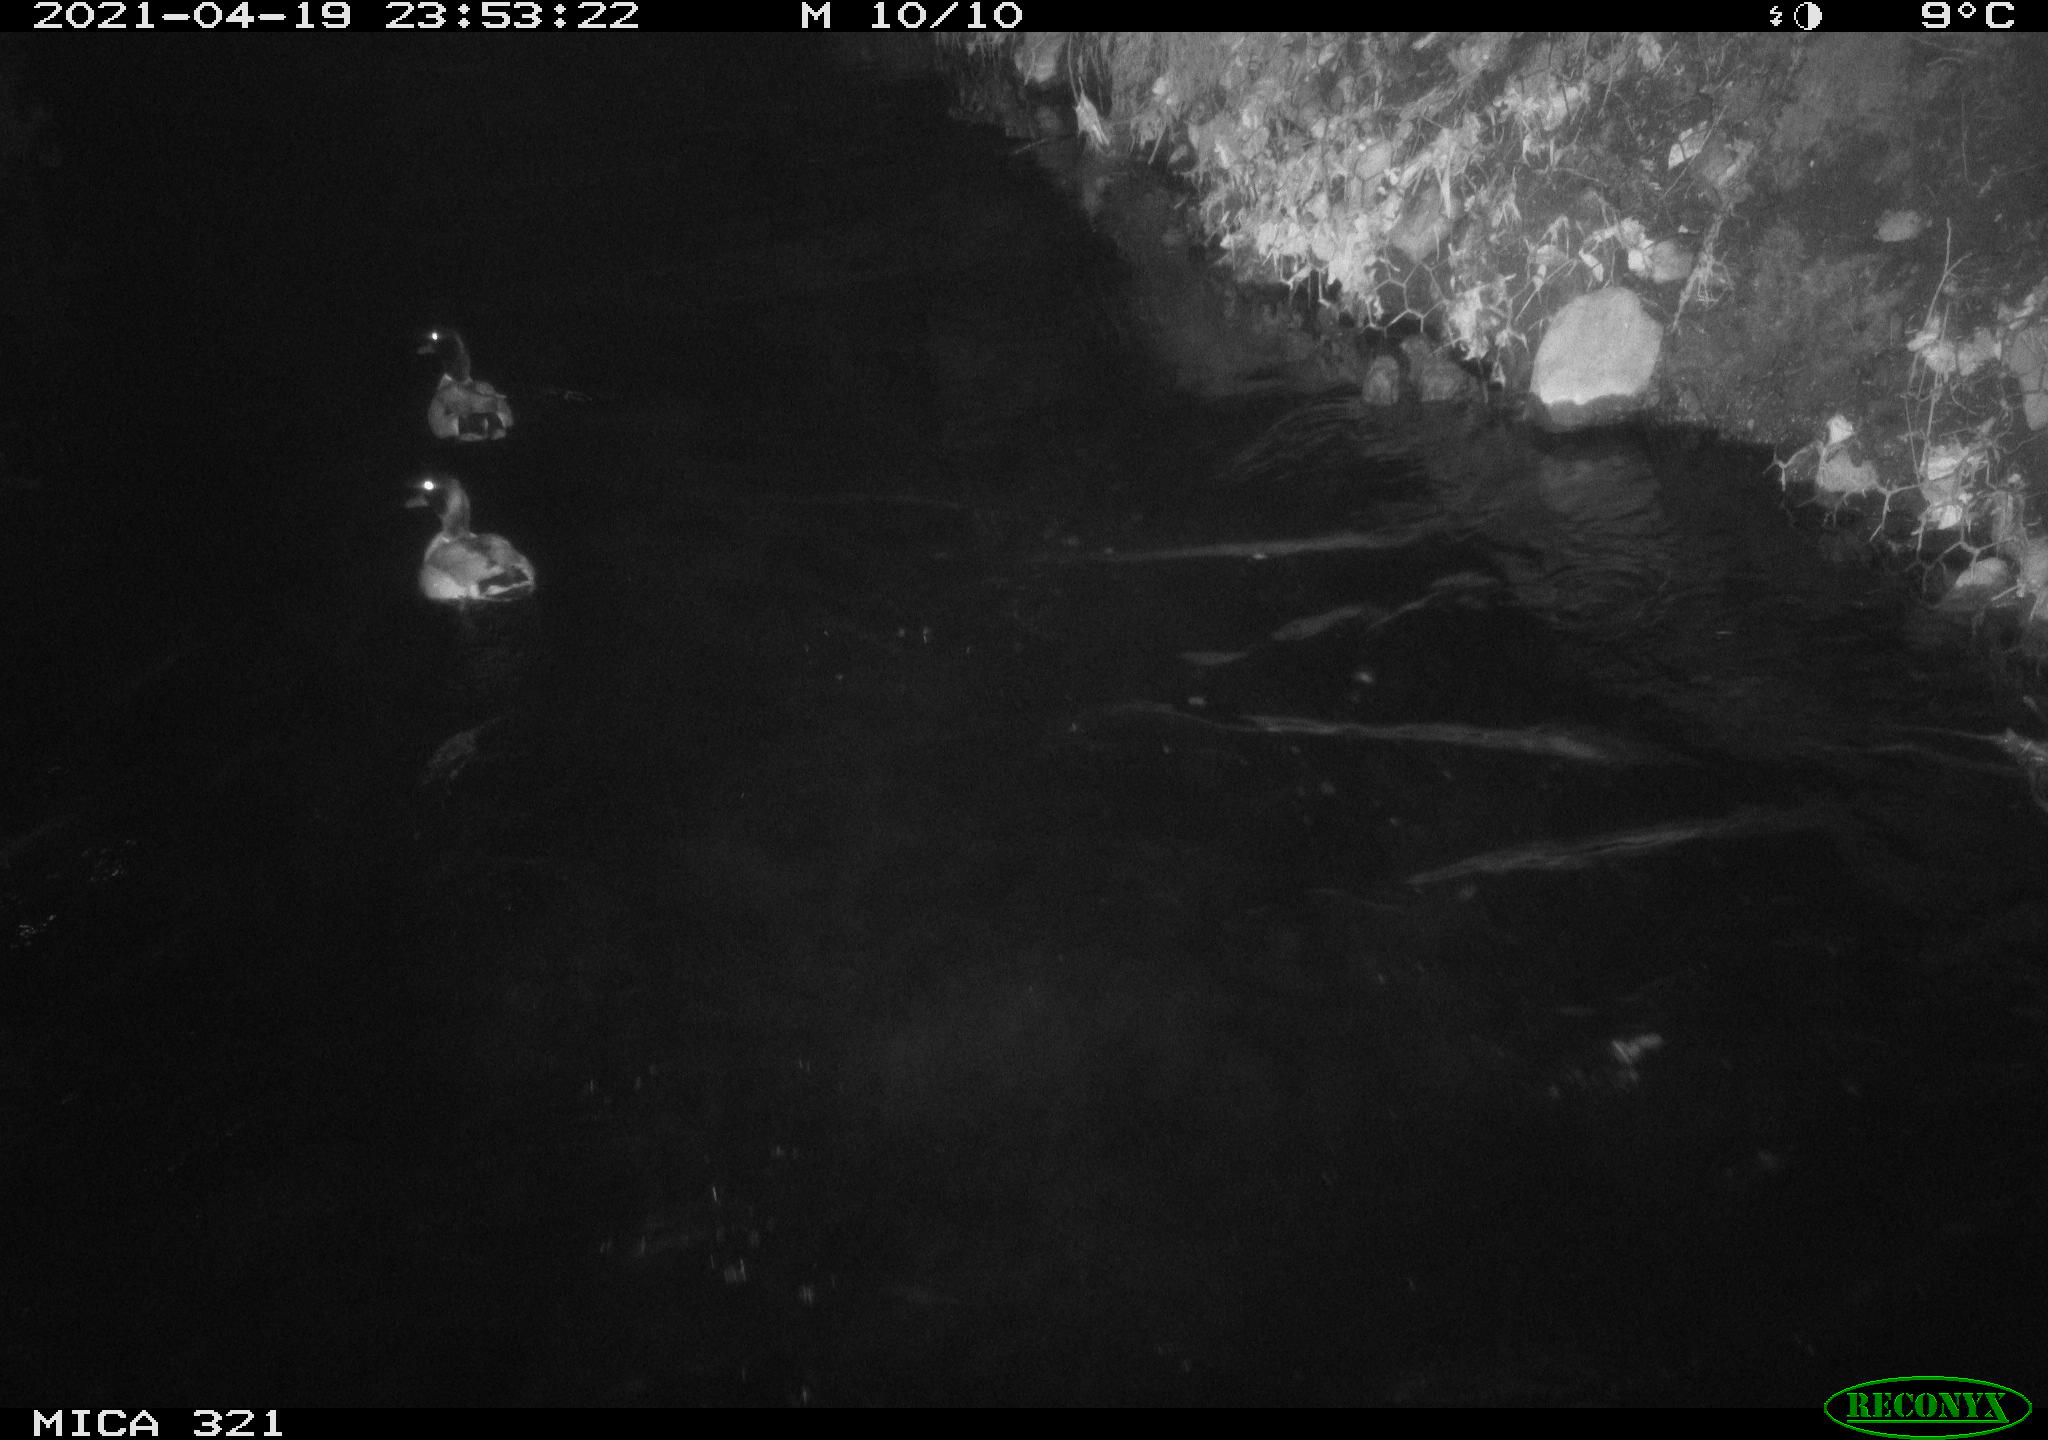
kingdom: Animalia
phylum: Chordata
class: Aves
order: Anseriformes
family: Anatidae
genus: Anas
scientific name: Anas
